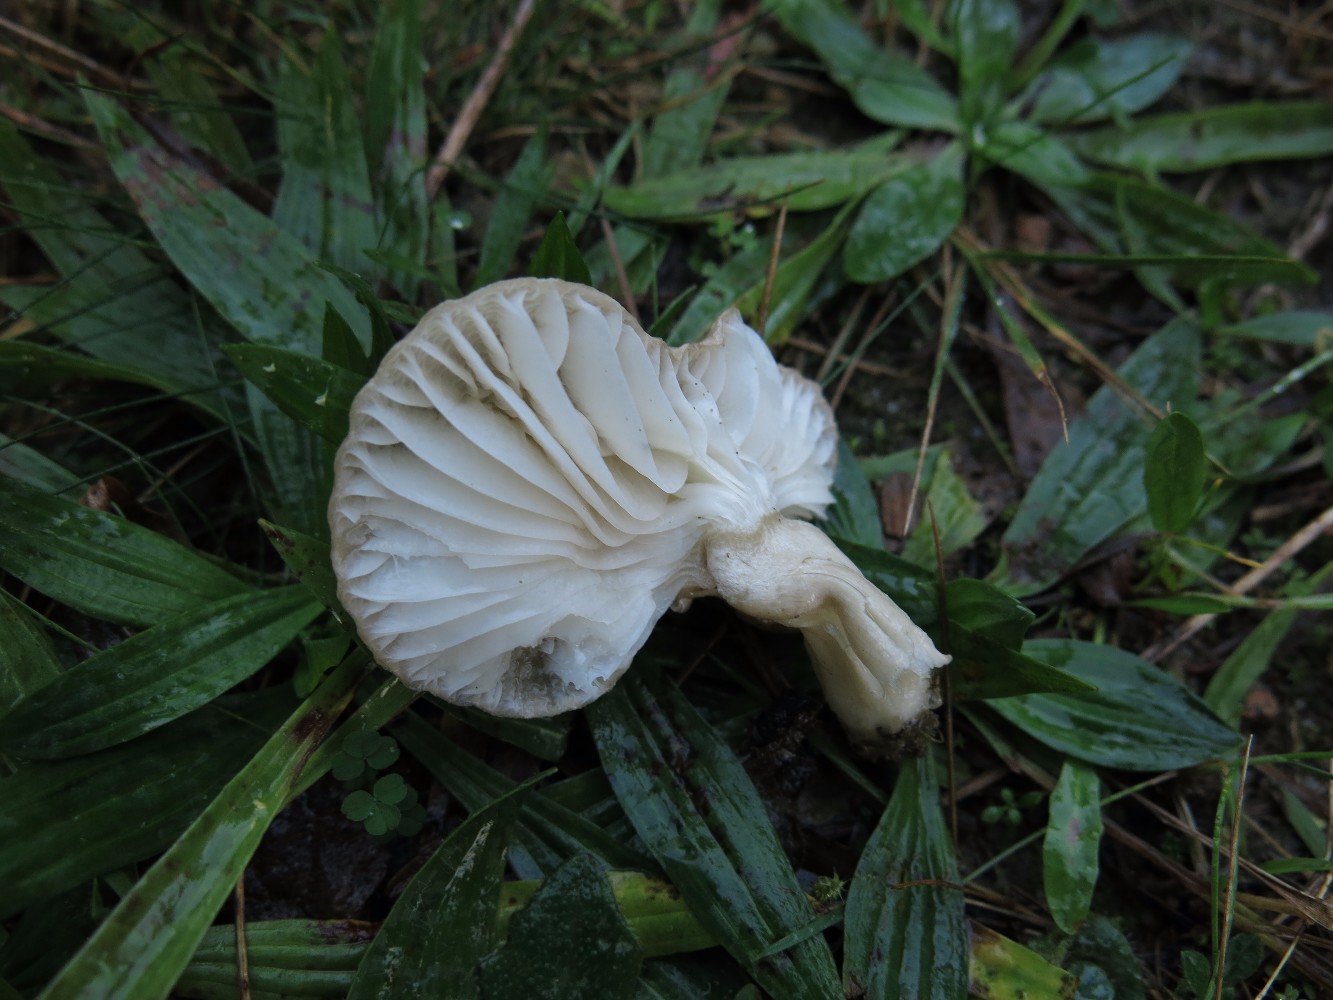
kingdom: Fungi
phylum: Basidiomycota
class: Agaricomycetes
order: Agaricales
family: Hygrophoraceae
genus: Hygrophorus
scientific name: Hygrophorus agathosmus
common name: vellugtende sneglehat
